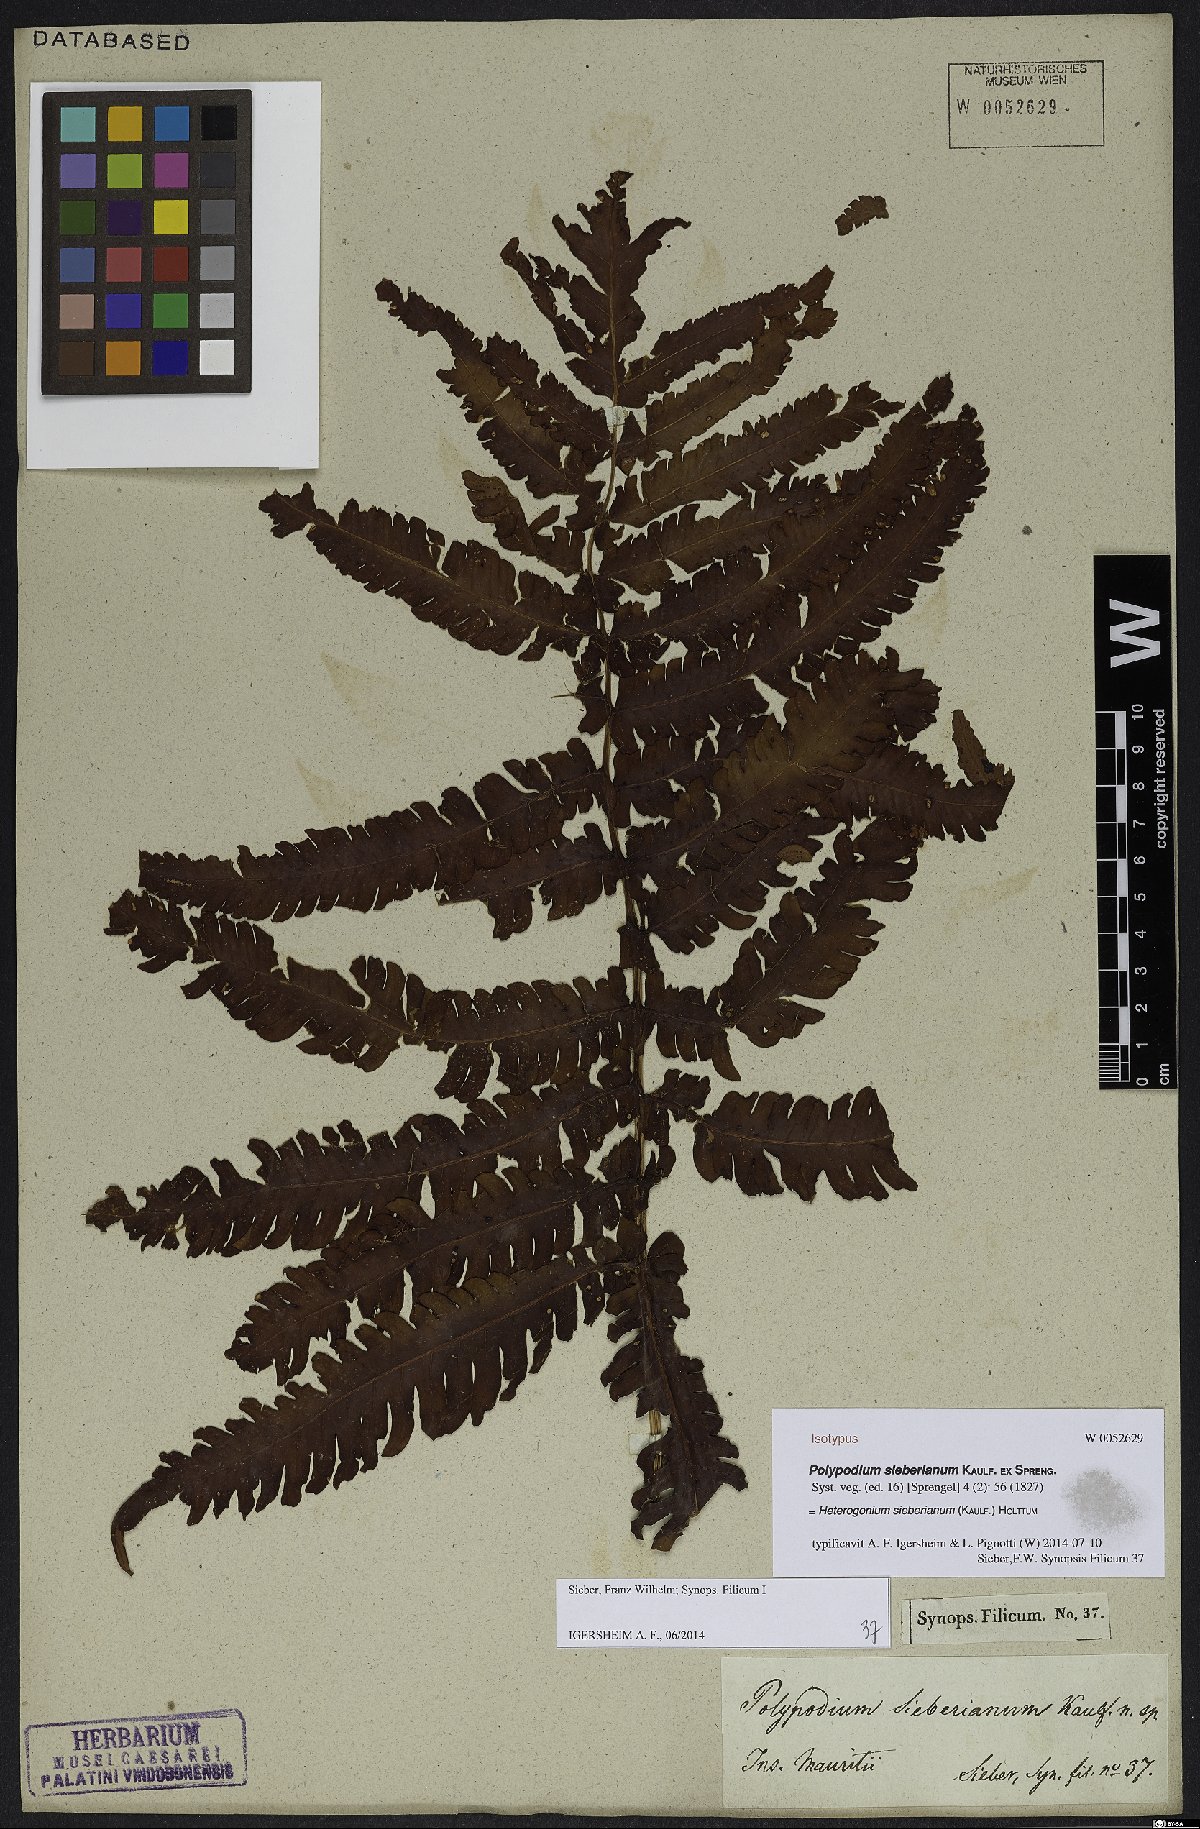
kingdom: Plantae
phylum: Tracheophyta
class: Polypodiopsida
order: Polypodiales
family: Dryopteridaceae
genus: Ctenitis
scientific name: Ctenitis sieberiana
